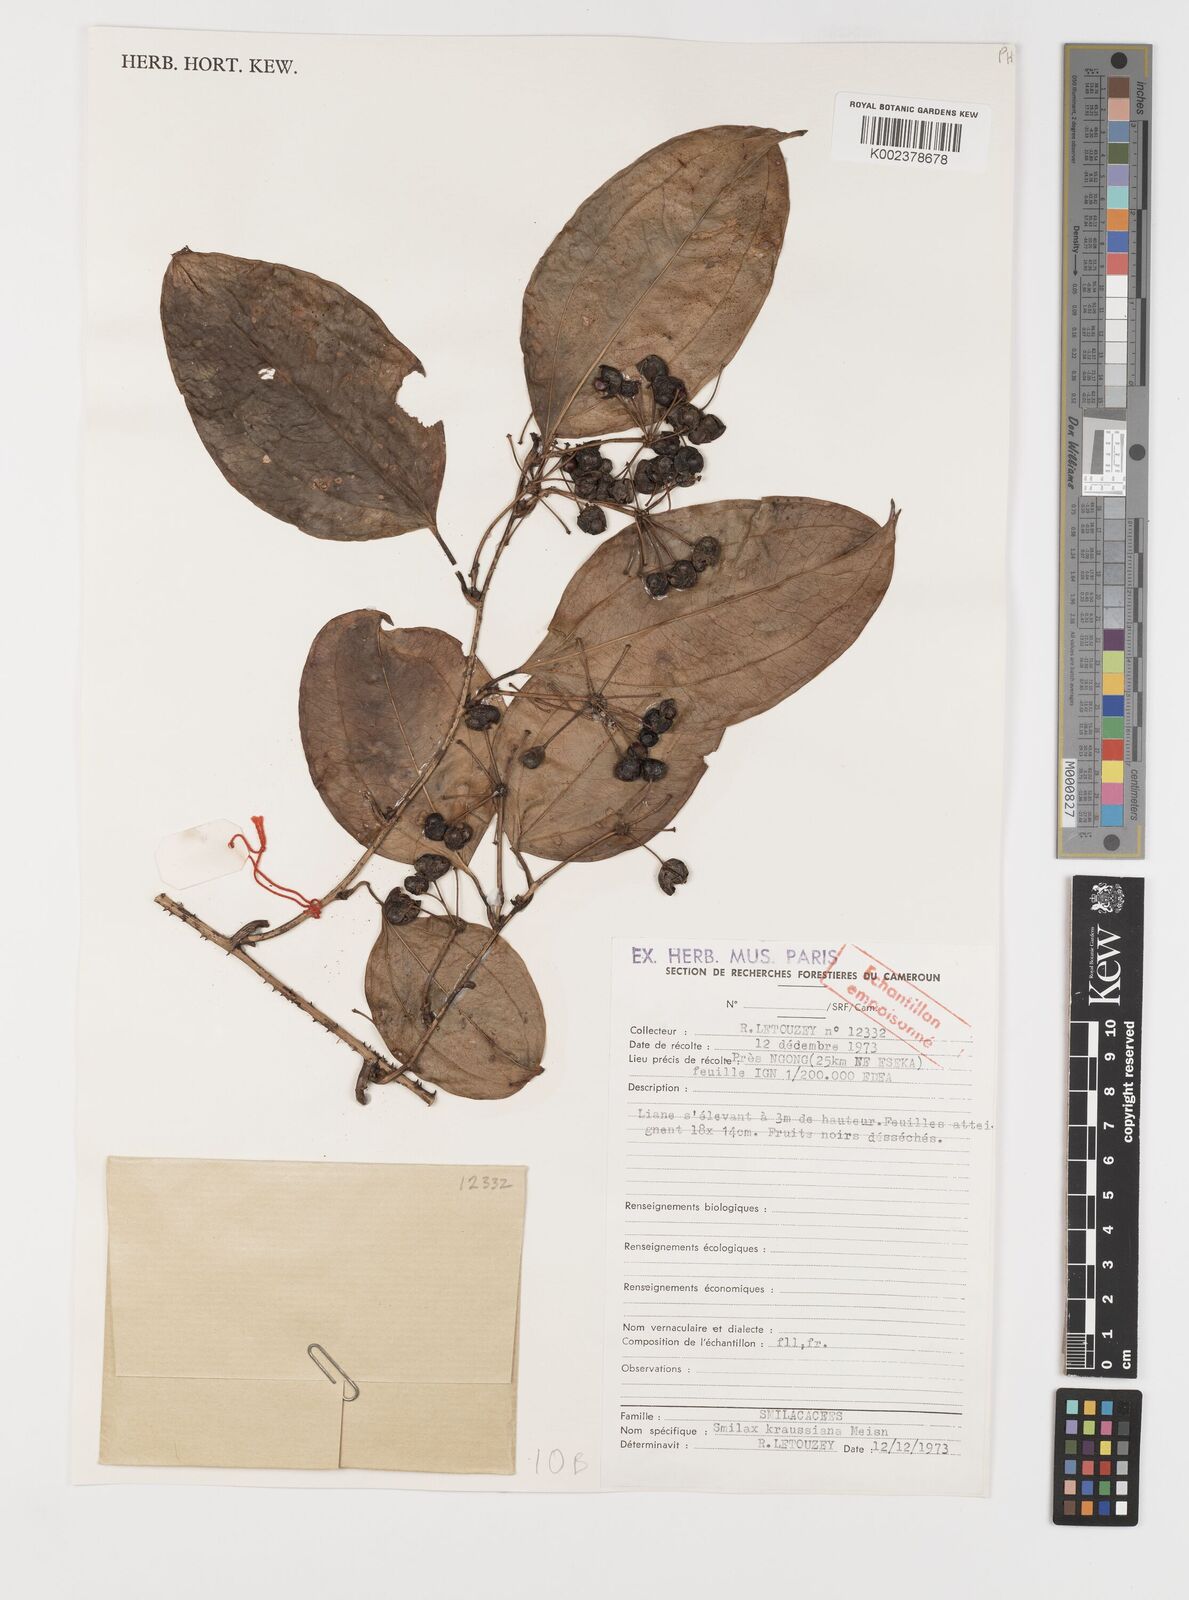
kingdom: Plantae
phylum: Tracheophyta
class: Liliopsida
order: Liliales
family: Smilacaceae
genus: Smilax
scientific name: Smilax anceps
